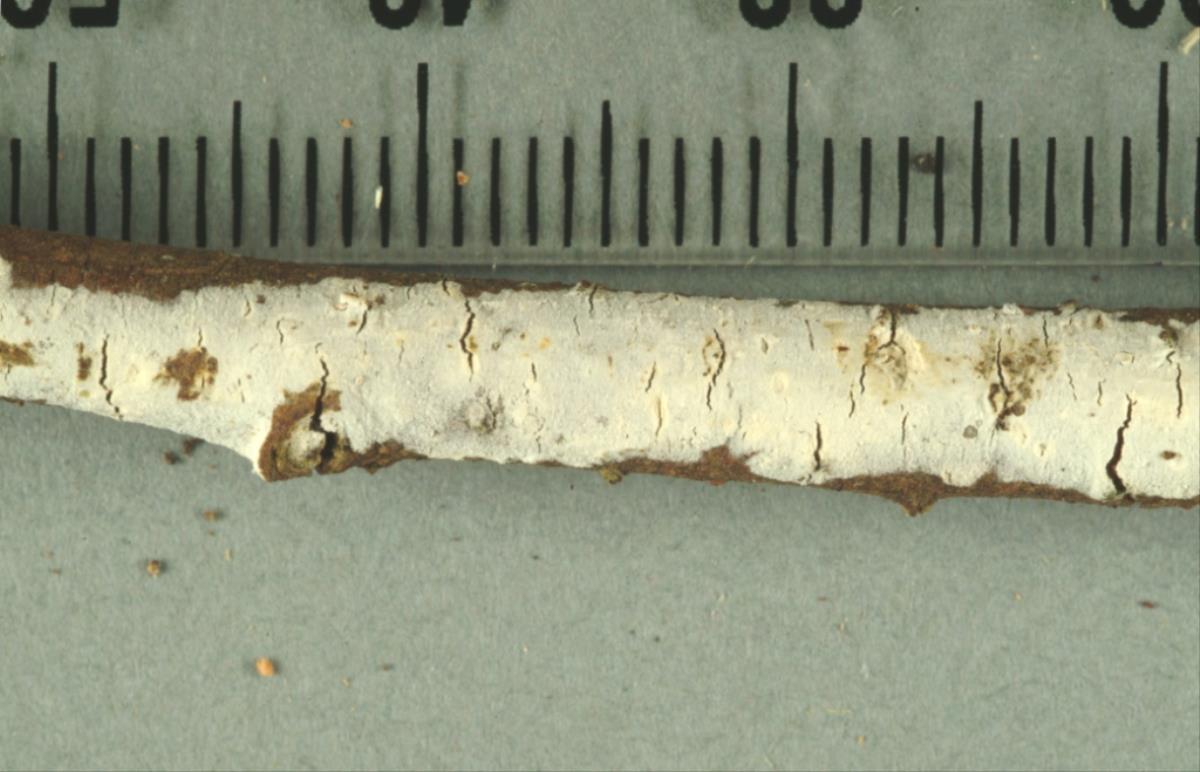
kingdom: Fungi
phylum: Basidiomycota
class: Agaricomycetes
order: Corticiales
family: Corticiaceae
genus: Lyomyces
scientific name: Lyomyces sambuci
